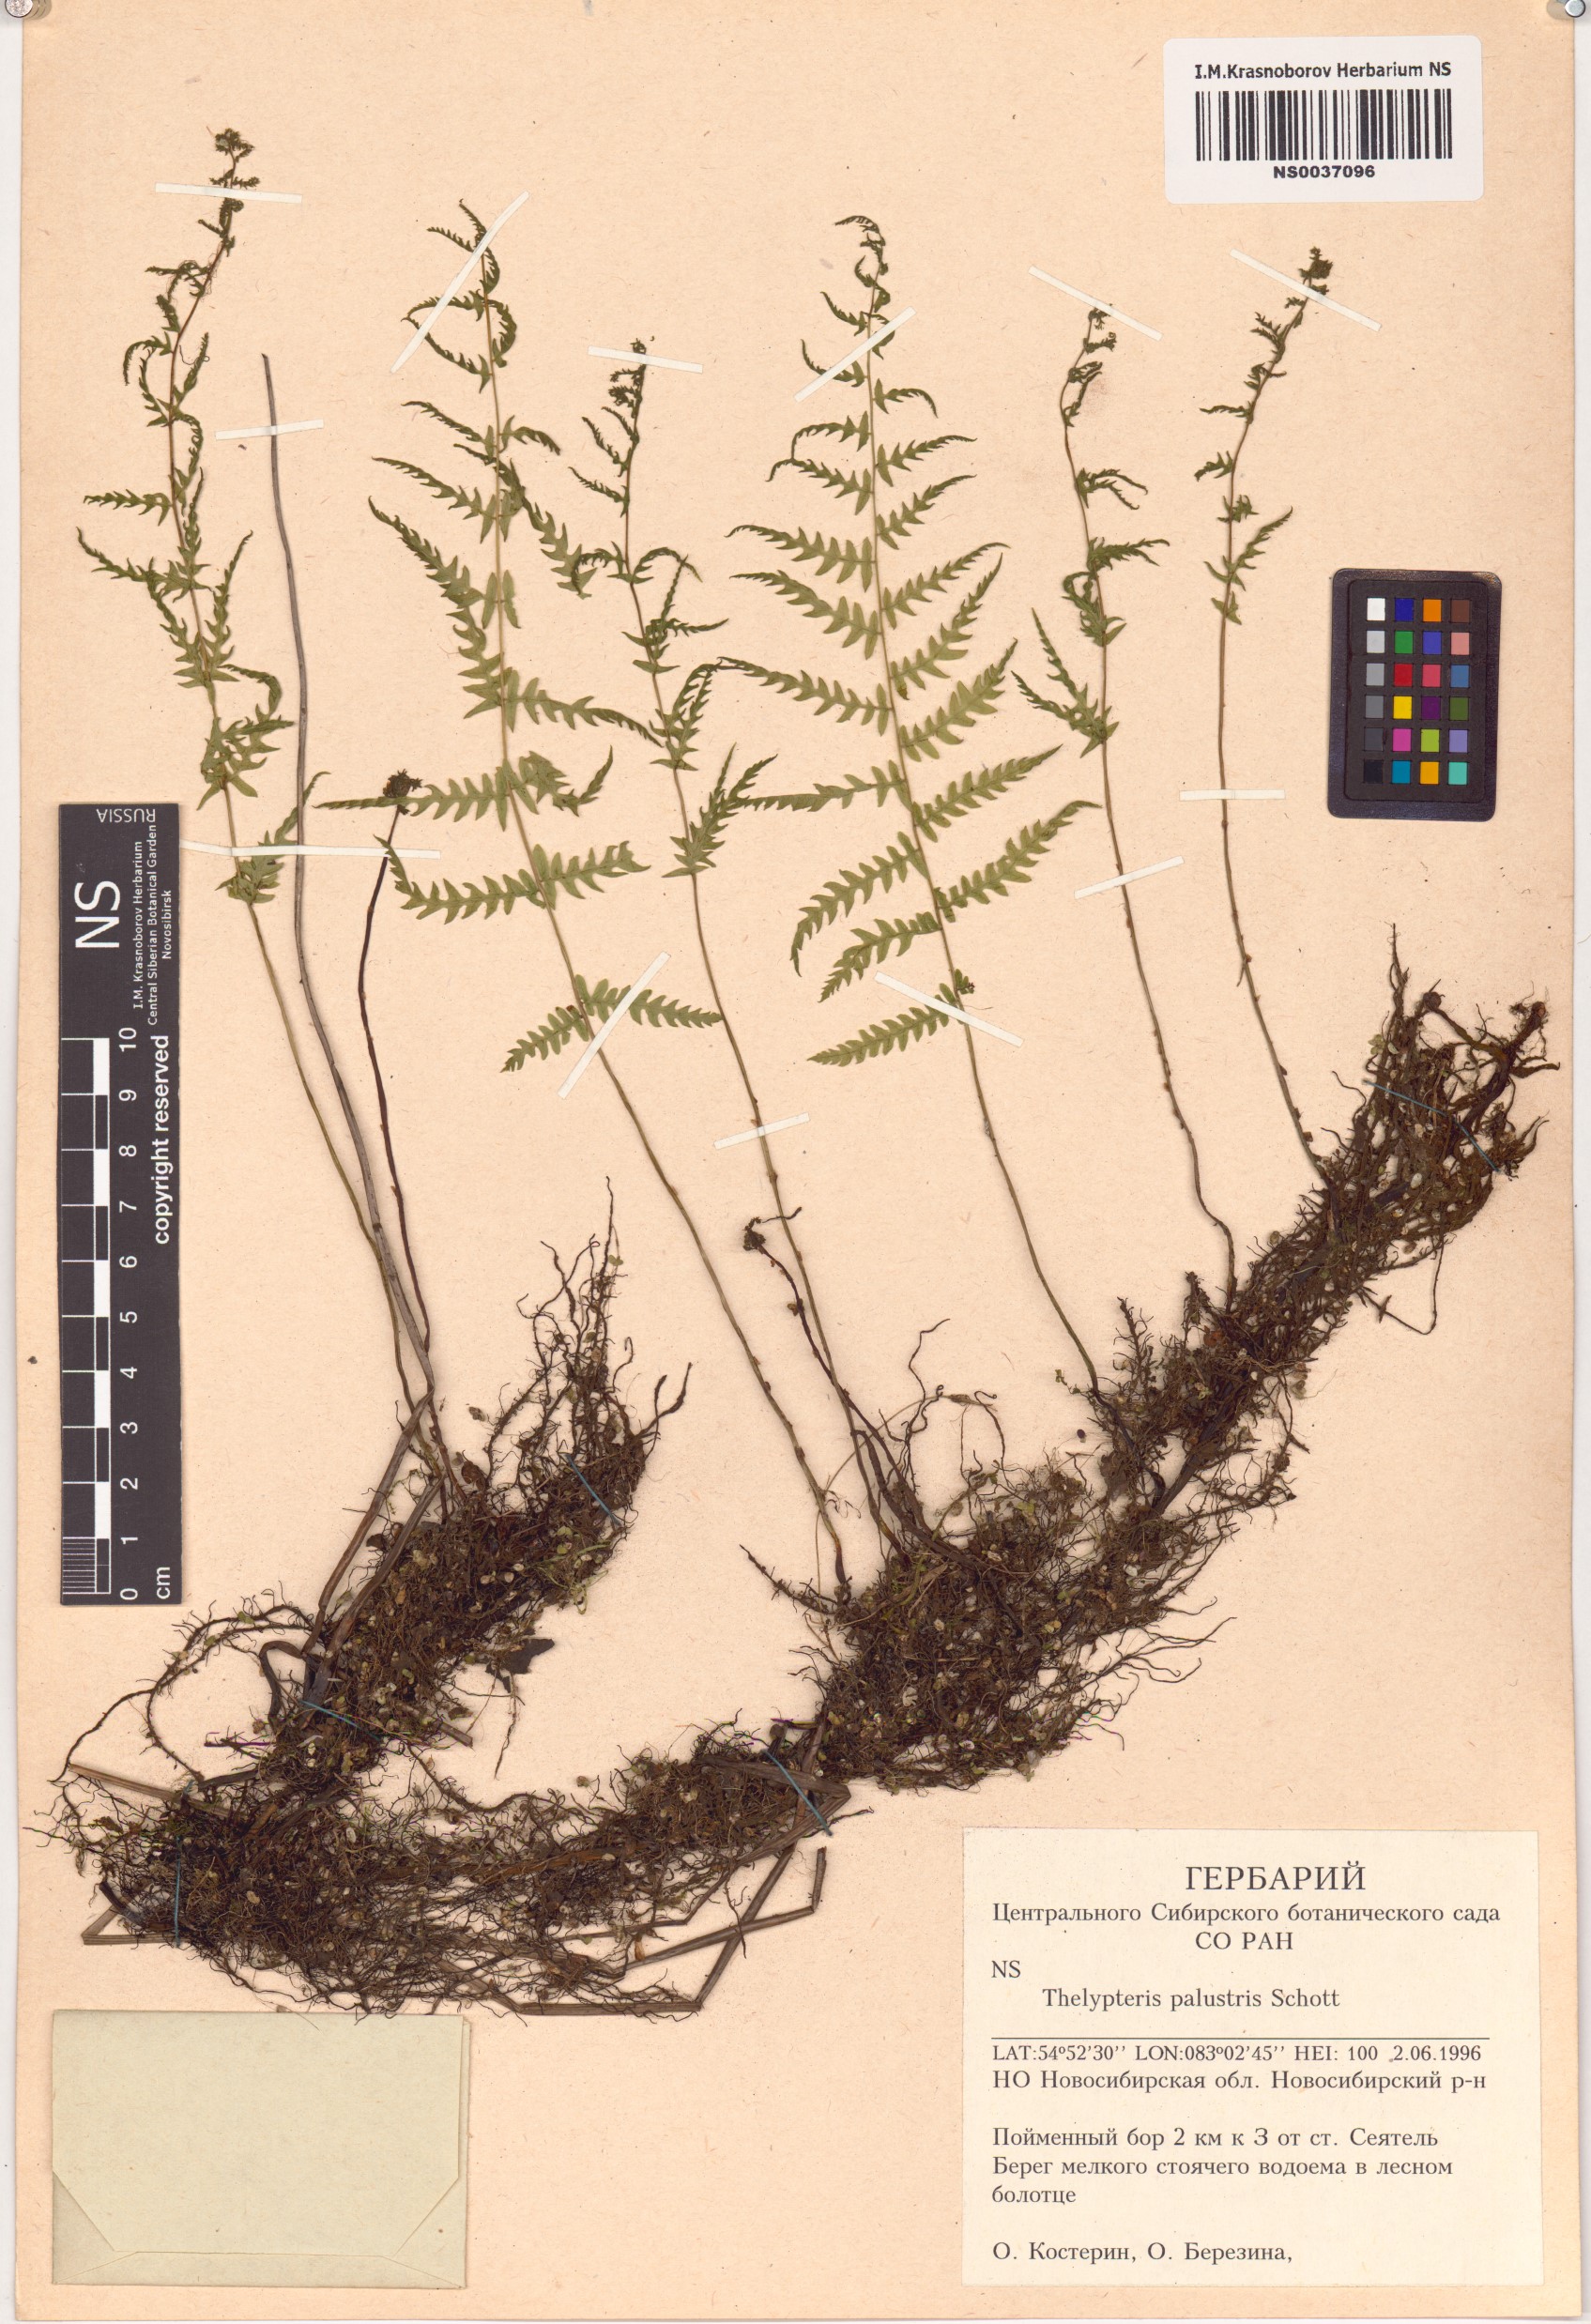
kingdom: Plantae
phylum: Tracheophyta
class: Polypodiopsida
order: Polypodiales
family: Thelypteridaceae
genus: Thelypteris
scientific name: Thelypteris palustris
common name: Marsh fern
